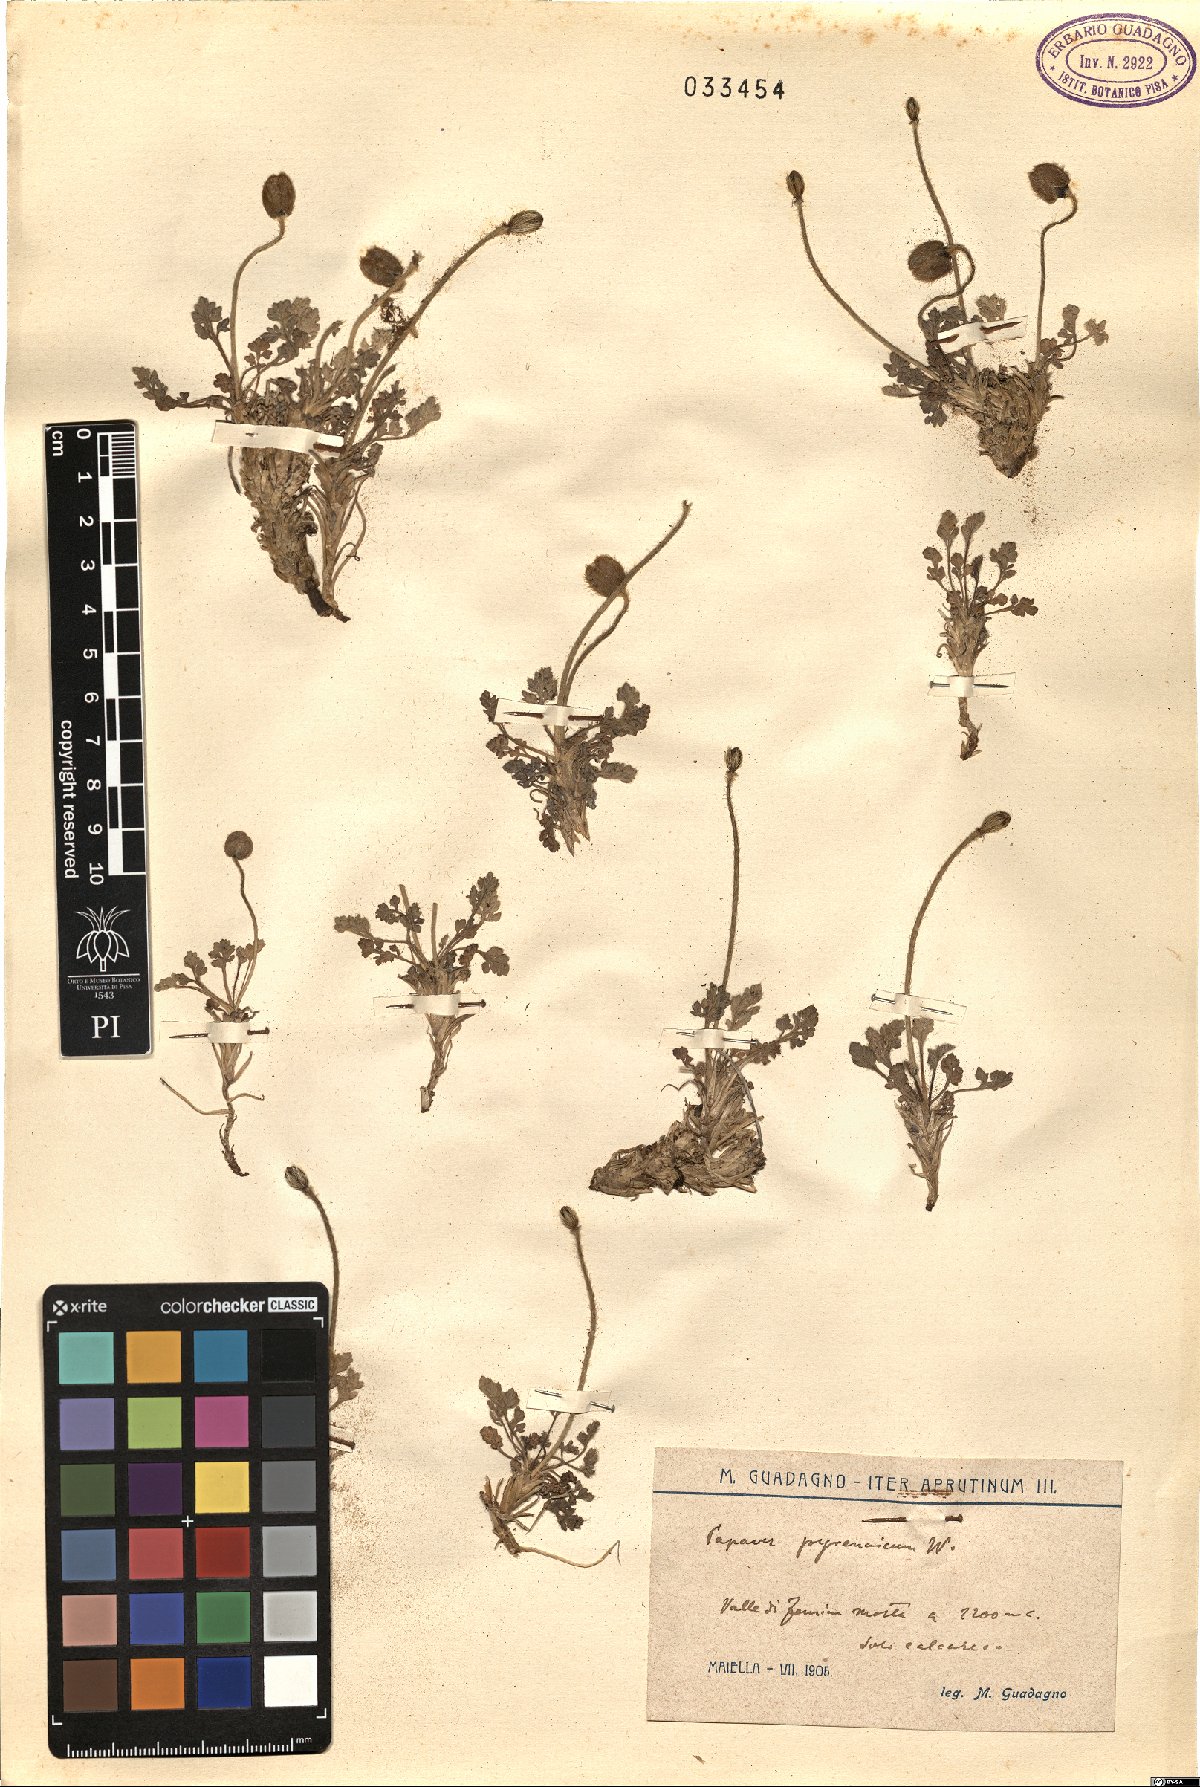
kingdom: Plantae
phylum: Tracheophyta
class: Magnoliopsida
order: Ranunculales
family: Papaveraceae
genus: Papaver
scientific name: Papaver alpinum
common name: Austrian poppy
